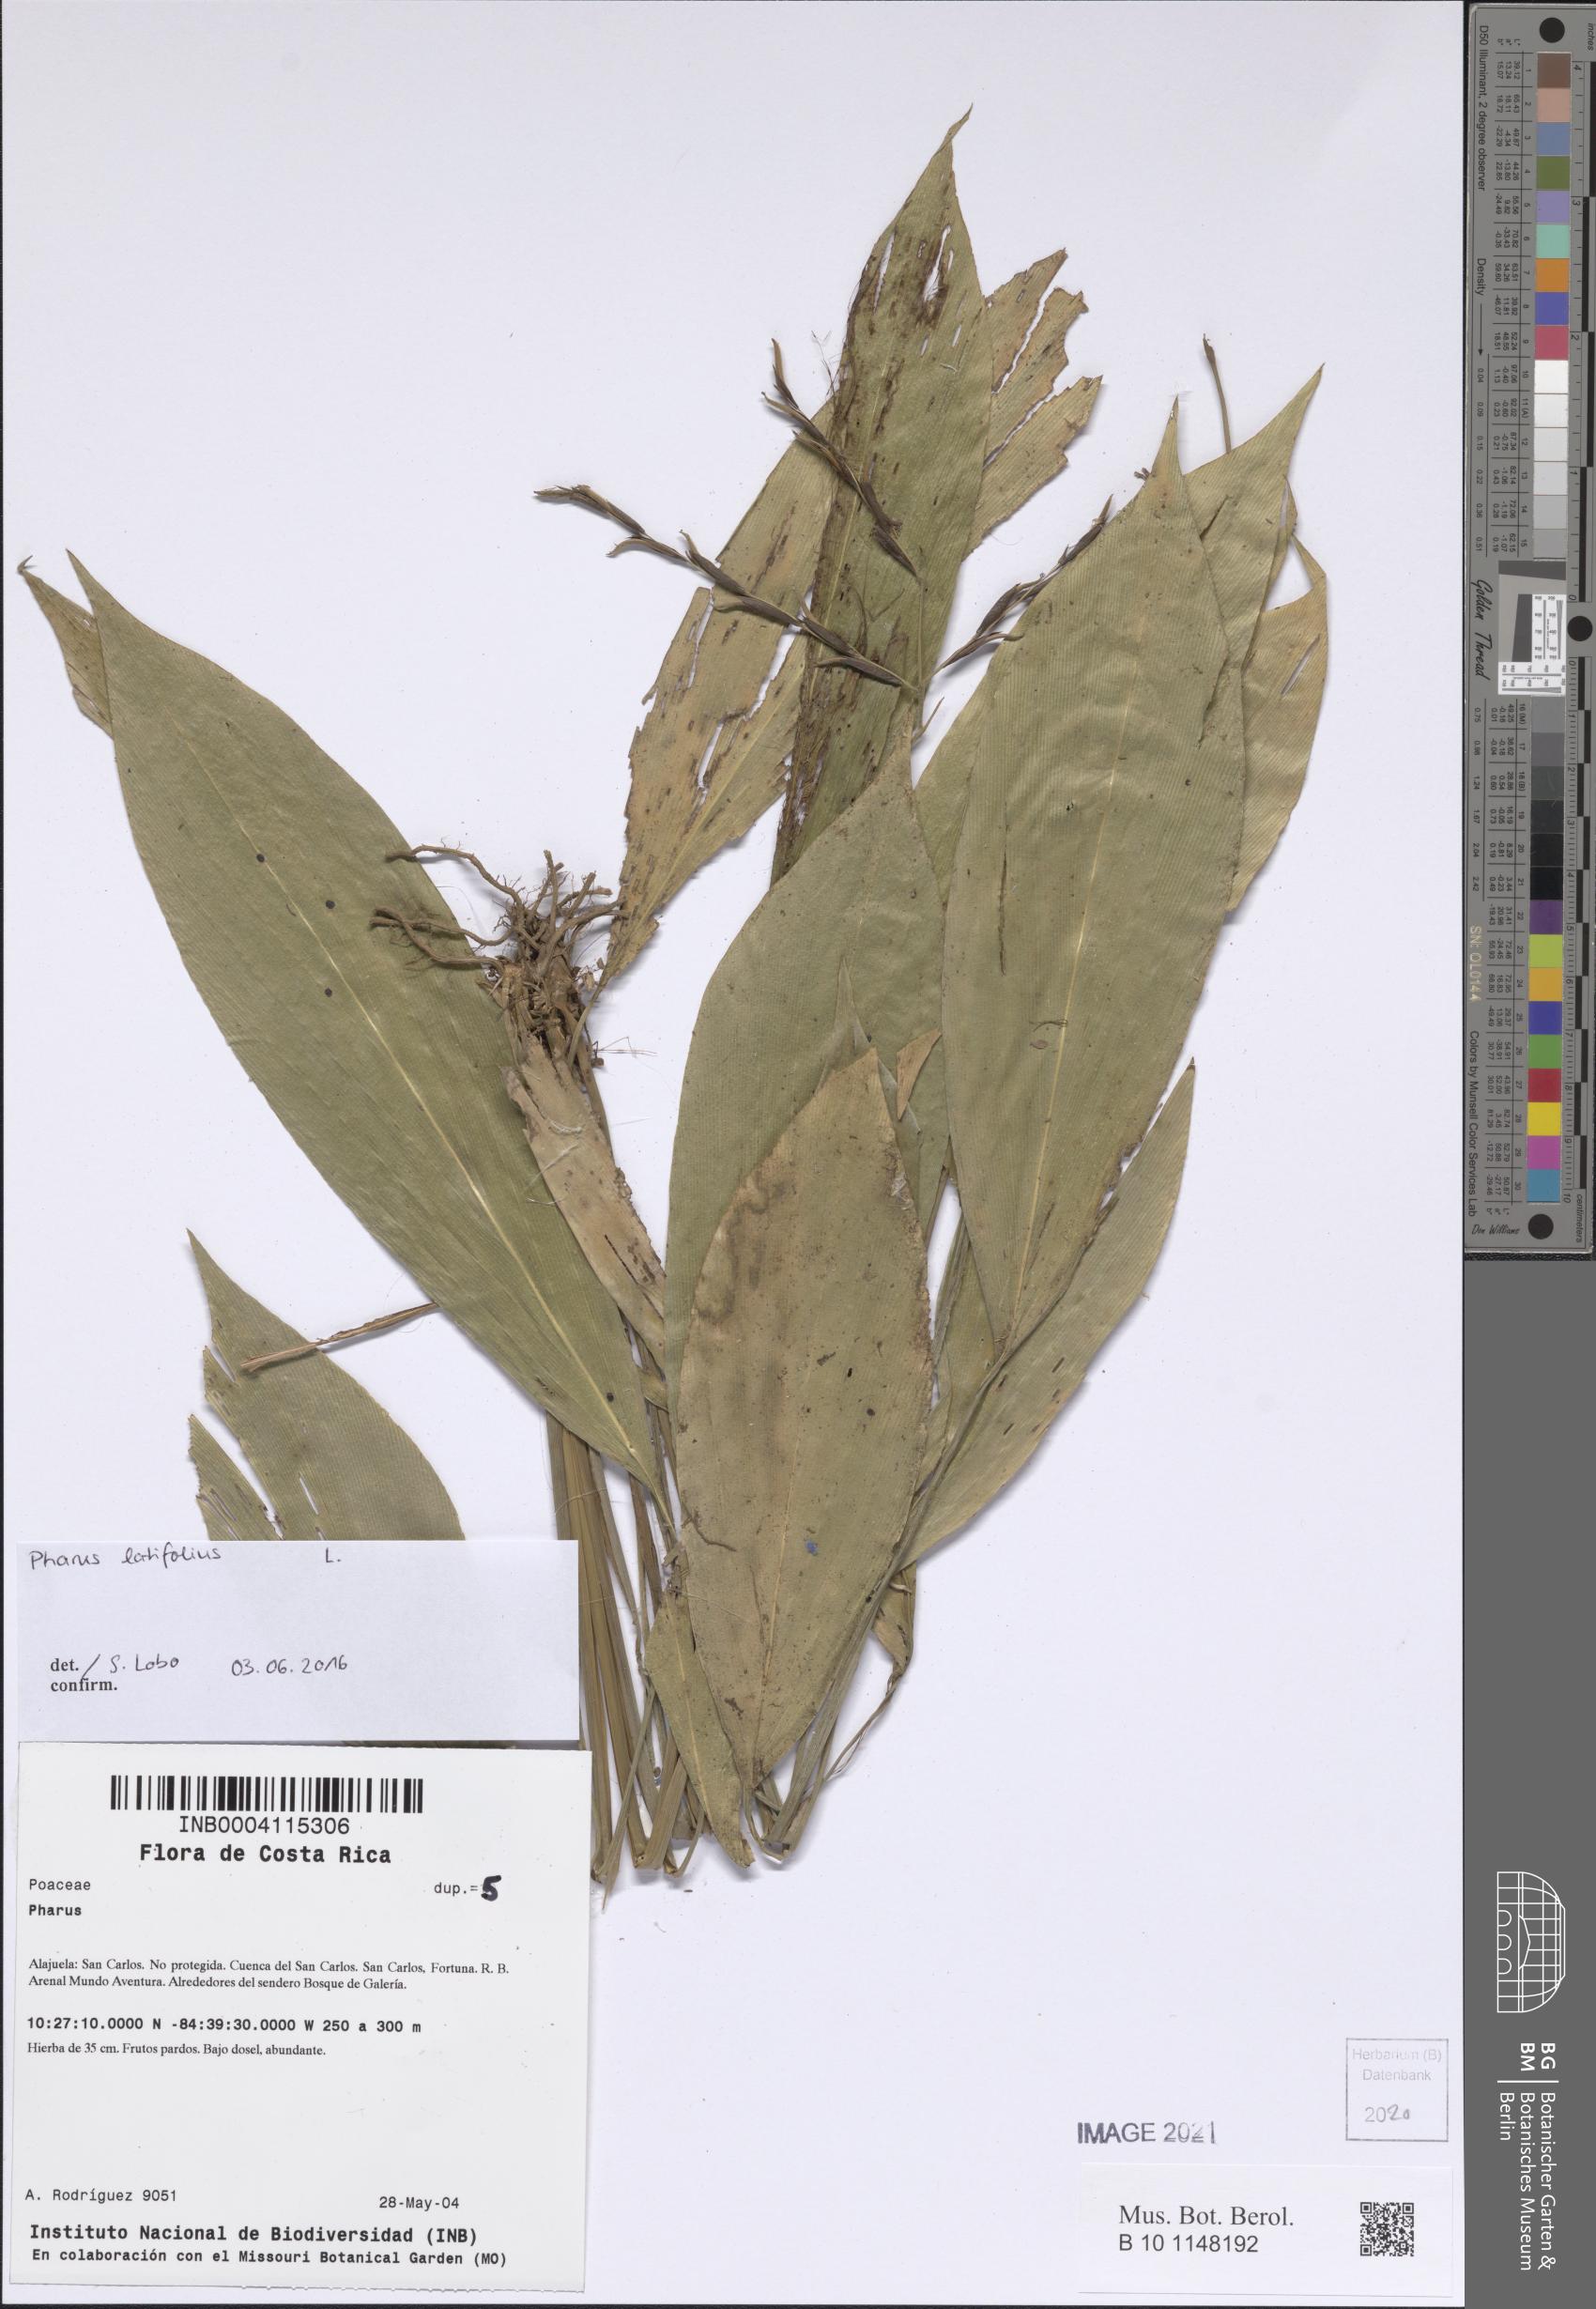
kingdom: Plantae
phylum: Tracheophyta
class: Liliopsida
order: Poales
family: Poaceae
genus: Pharus
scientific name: Pharus
